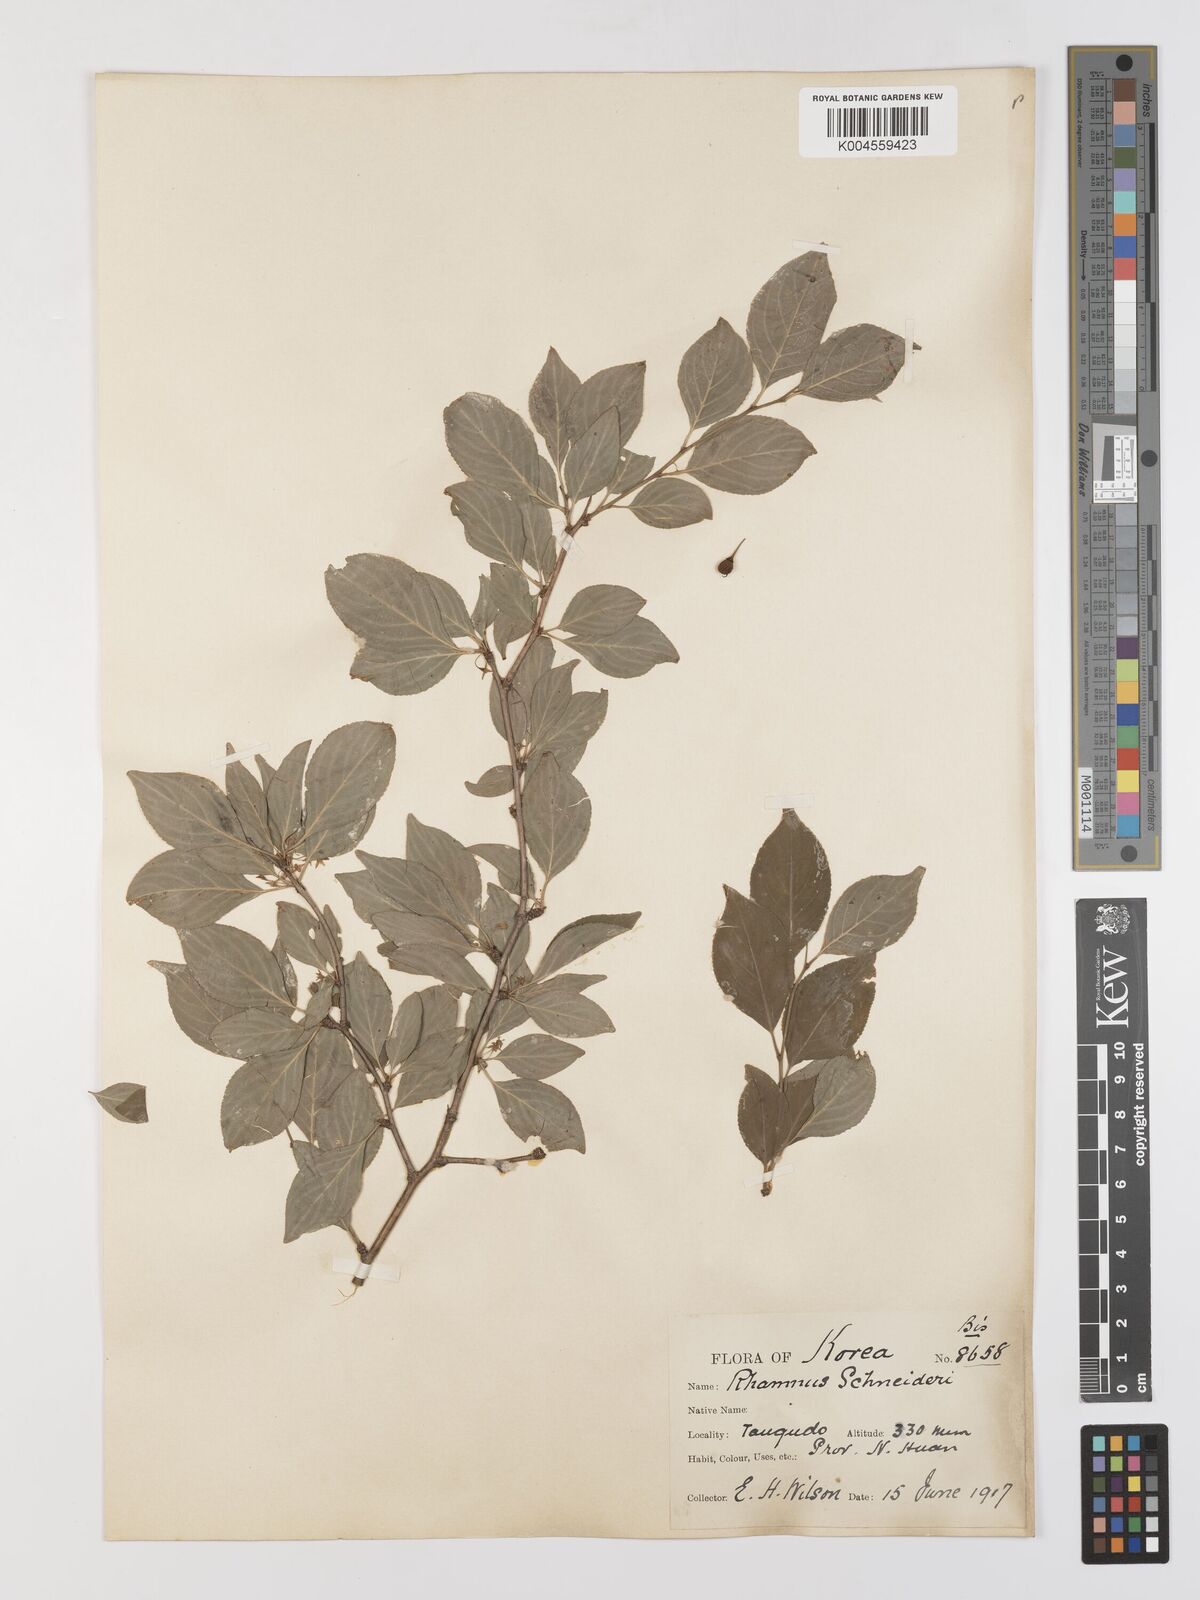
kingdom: Plantae
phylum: Tracheophyta
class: Magnoliopsida
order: Rosales
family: Rhamnaceae
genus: Rhamnus
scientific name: Rhamnus schneideri
